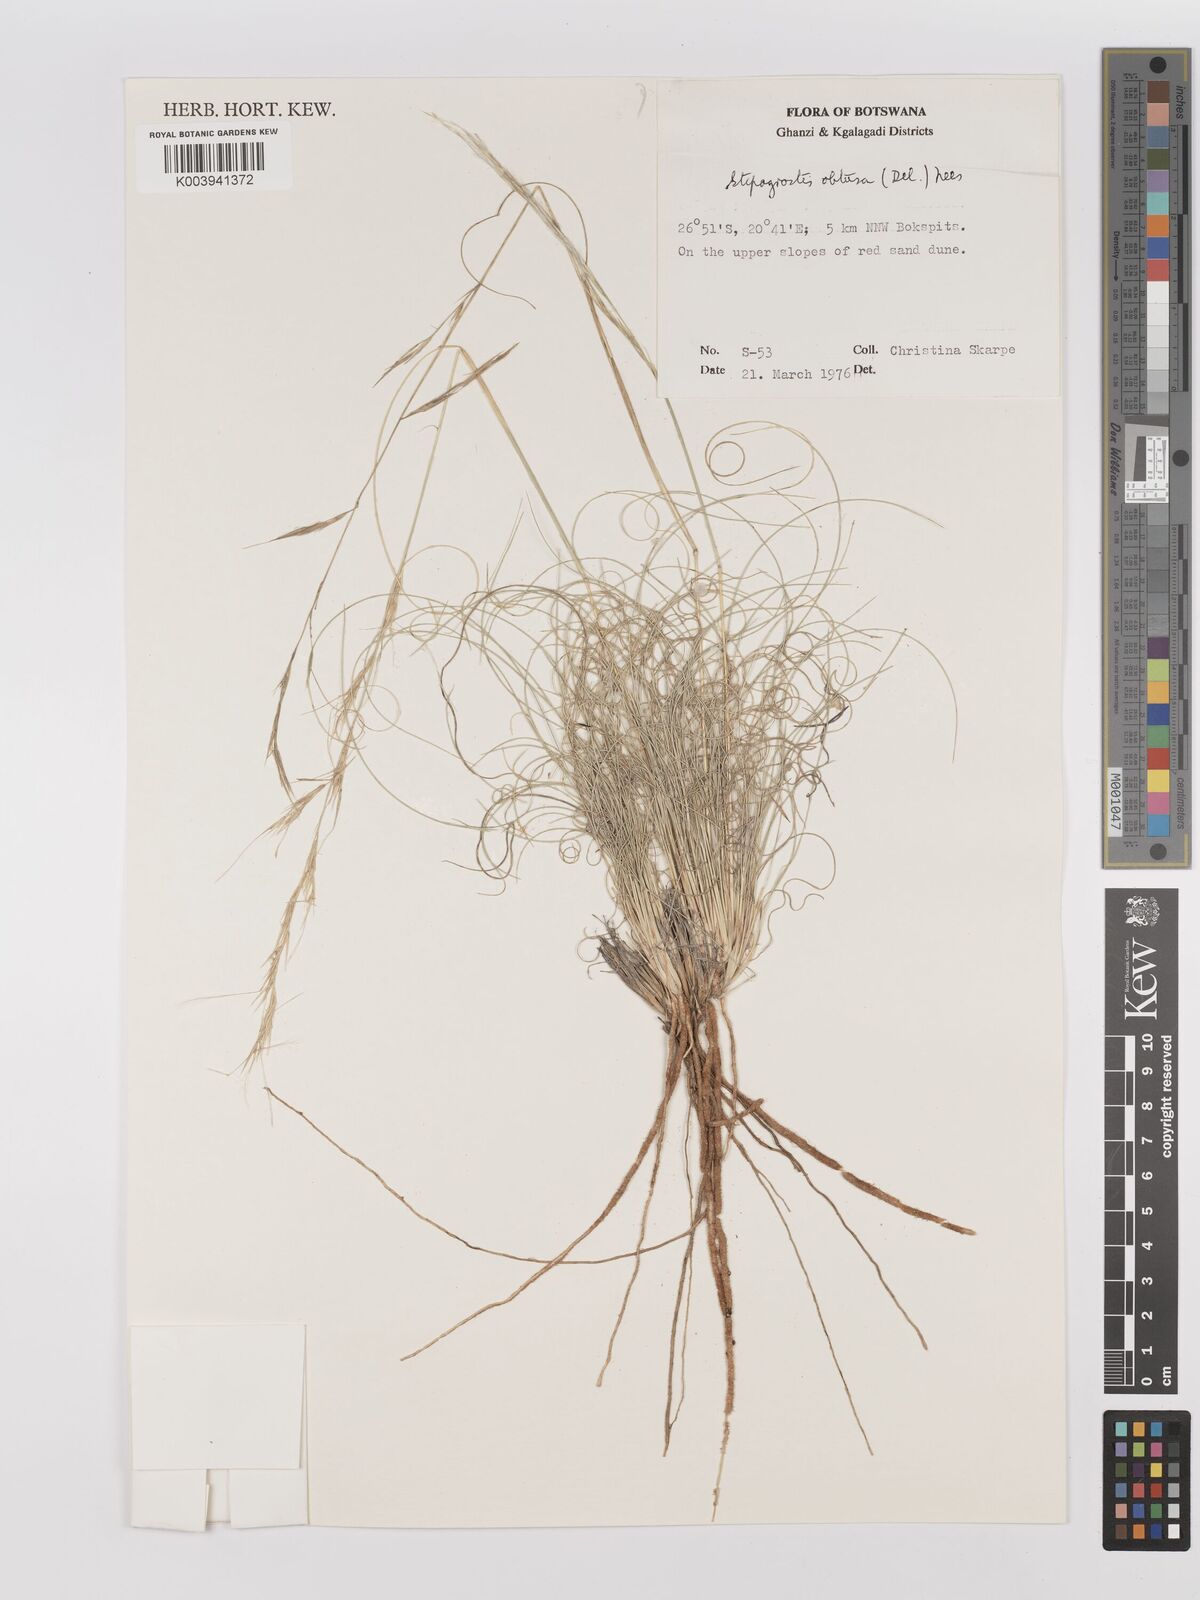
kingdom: Plantae
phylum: Tracheophyta
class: Liliopsida
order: Poales
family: Poaceae
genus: Stipagrostis
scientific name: Stipagrostis obtusa
